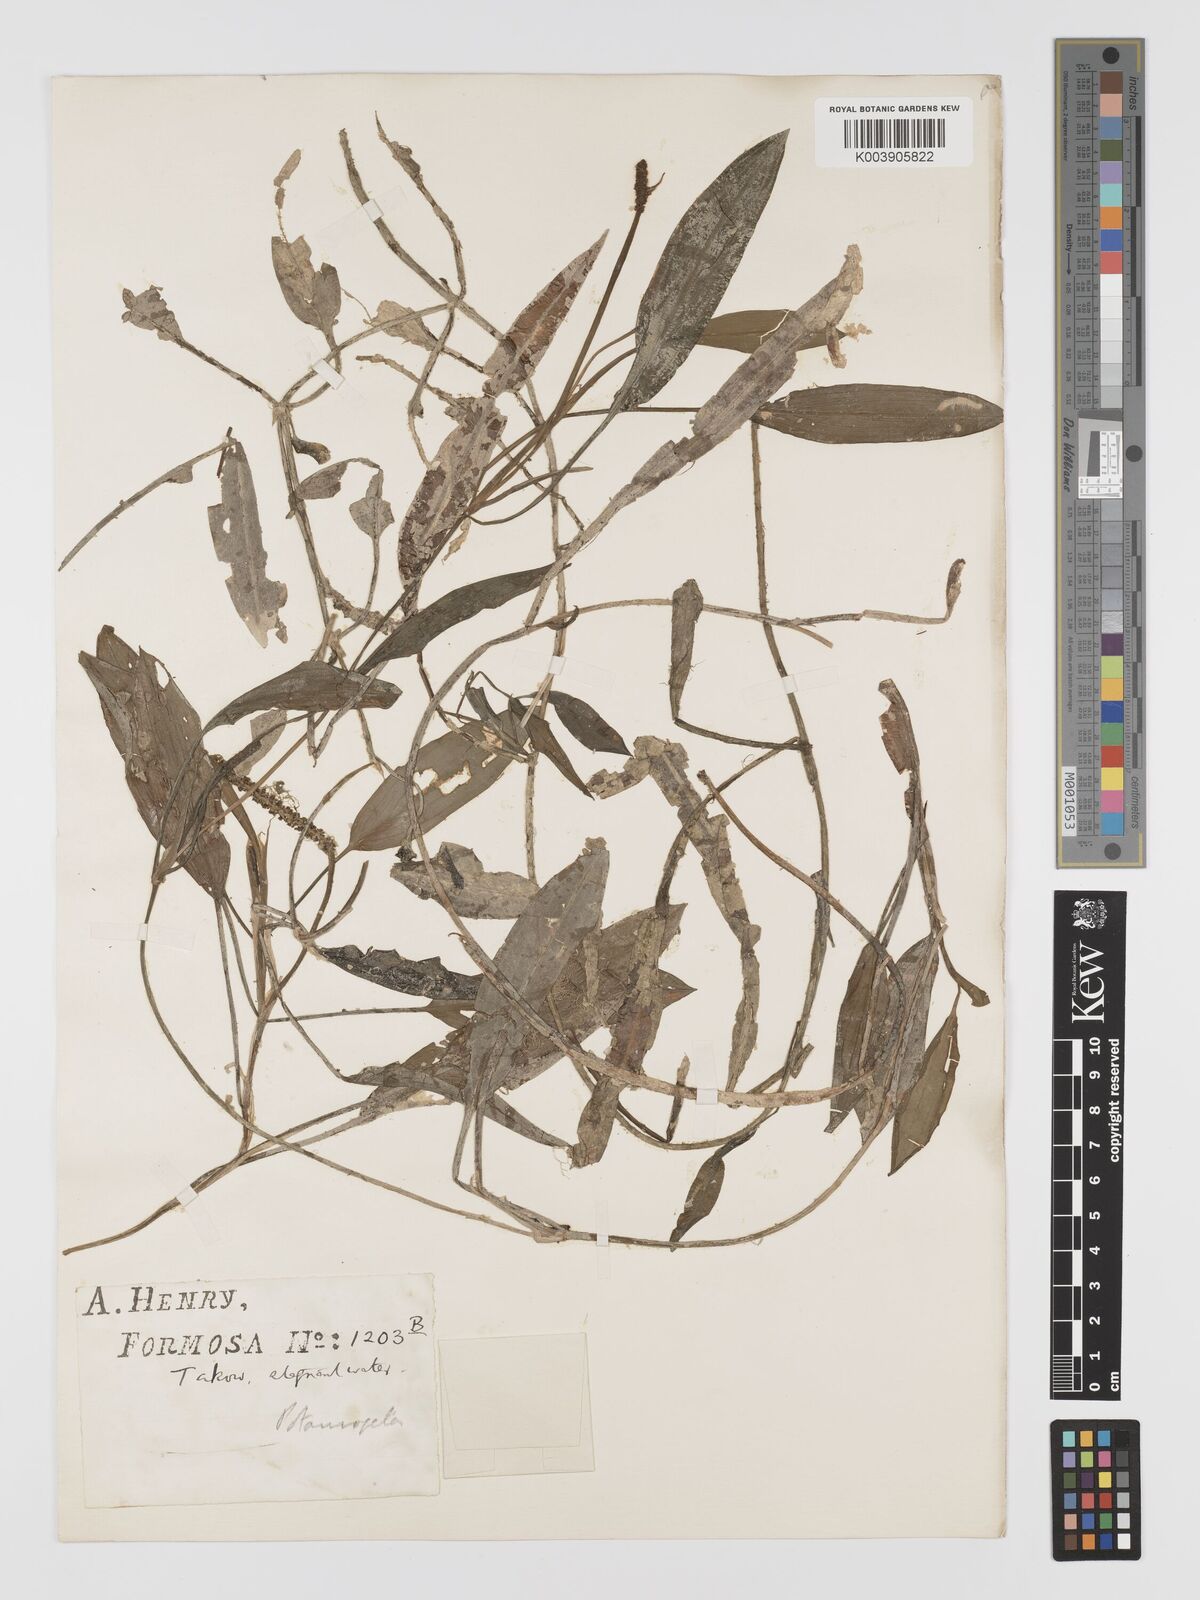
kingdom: Plantae
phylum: Tracheophyta
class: Liliopsida
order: Alismatales
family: Potamogetonaceae
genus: Potamogeton
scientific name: Potamogeton nodosus
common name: Loddon pondweed
